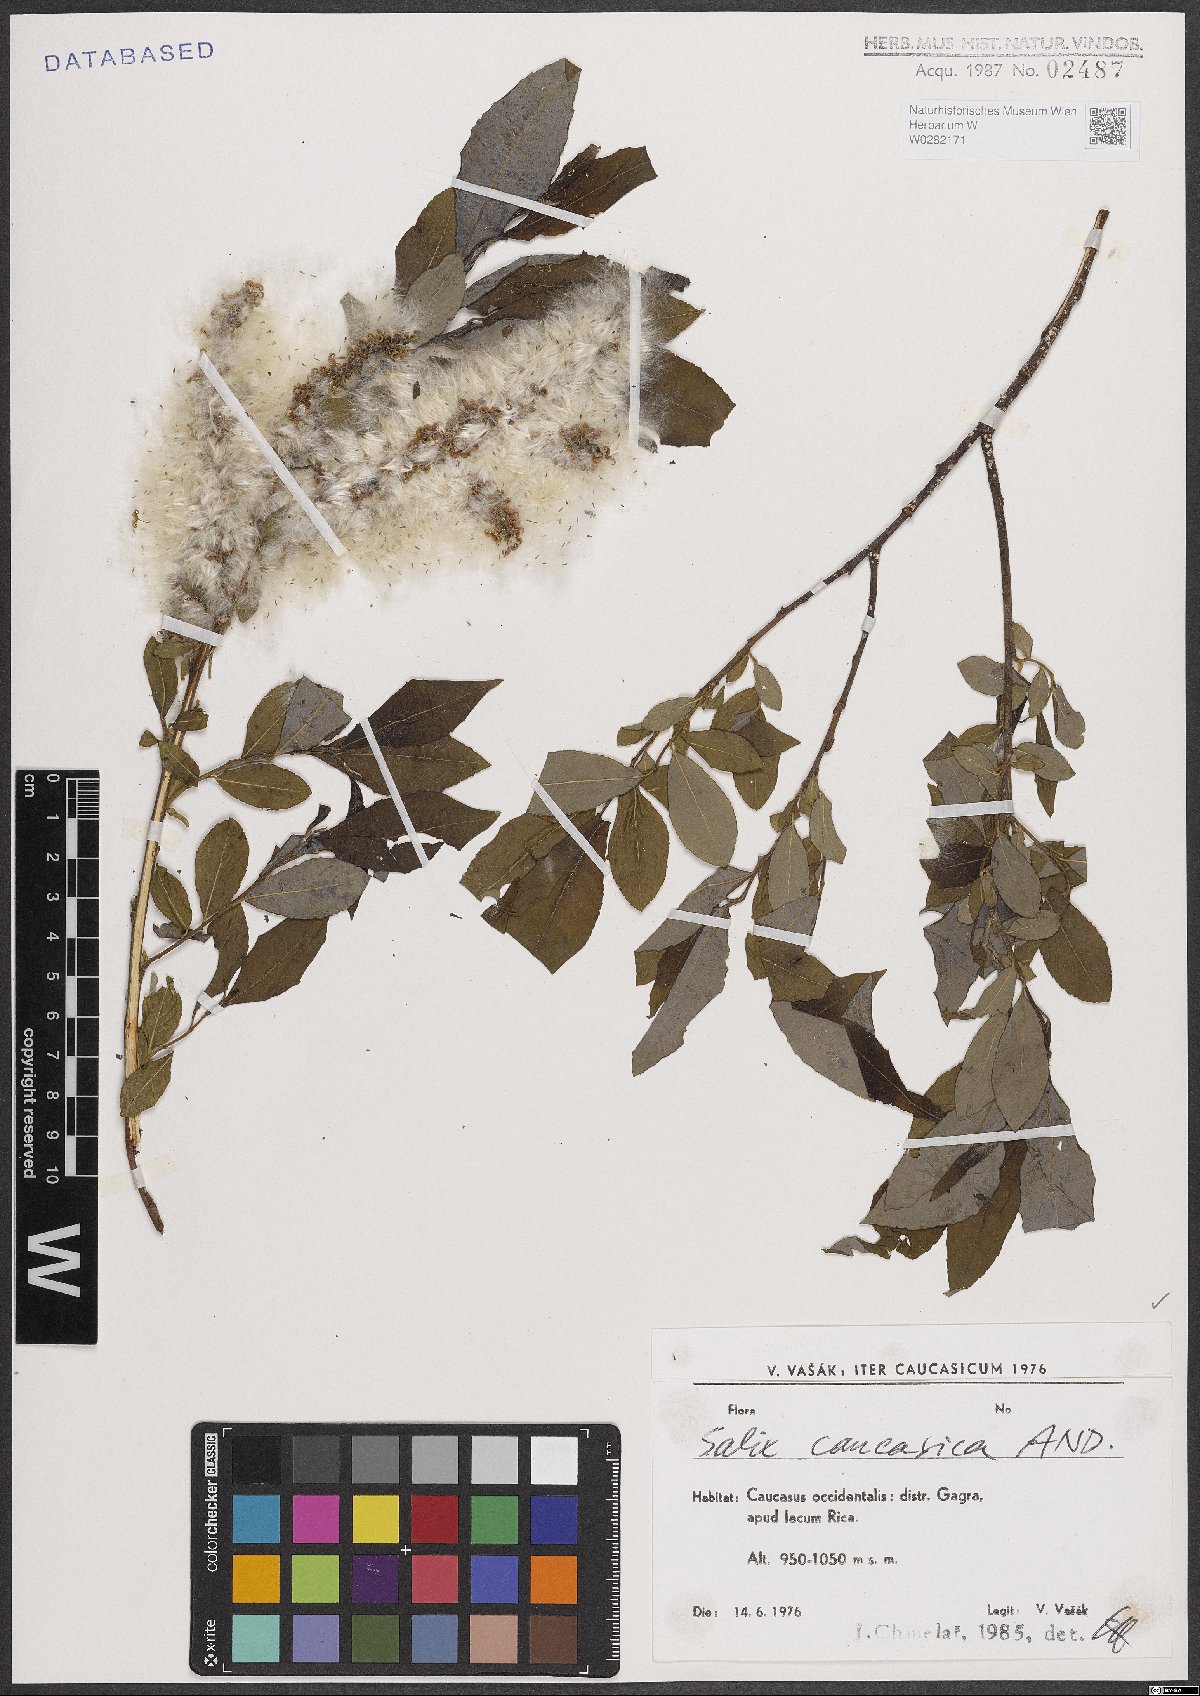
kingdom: Plantae
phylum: Tracheophyta
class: Magnoliopsida
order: Malpighiales
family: Salicaceae
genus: Salix
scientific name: Salix caucasica
